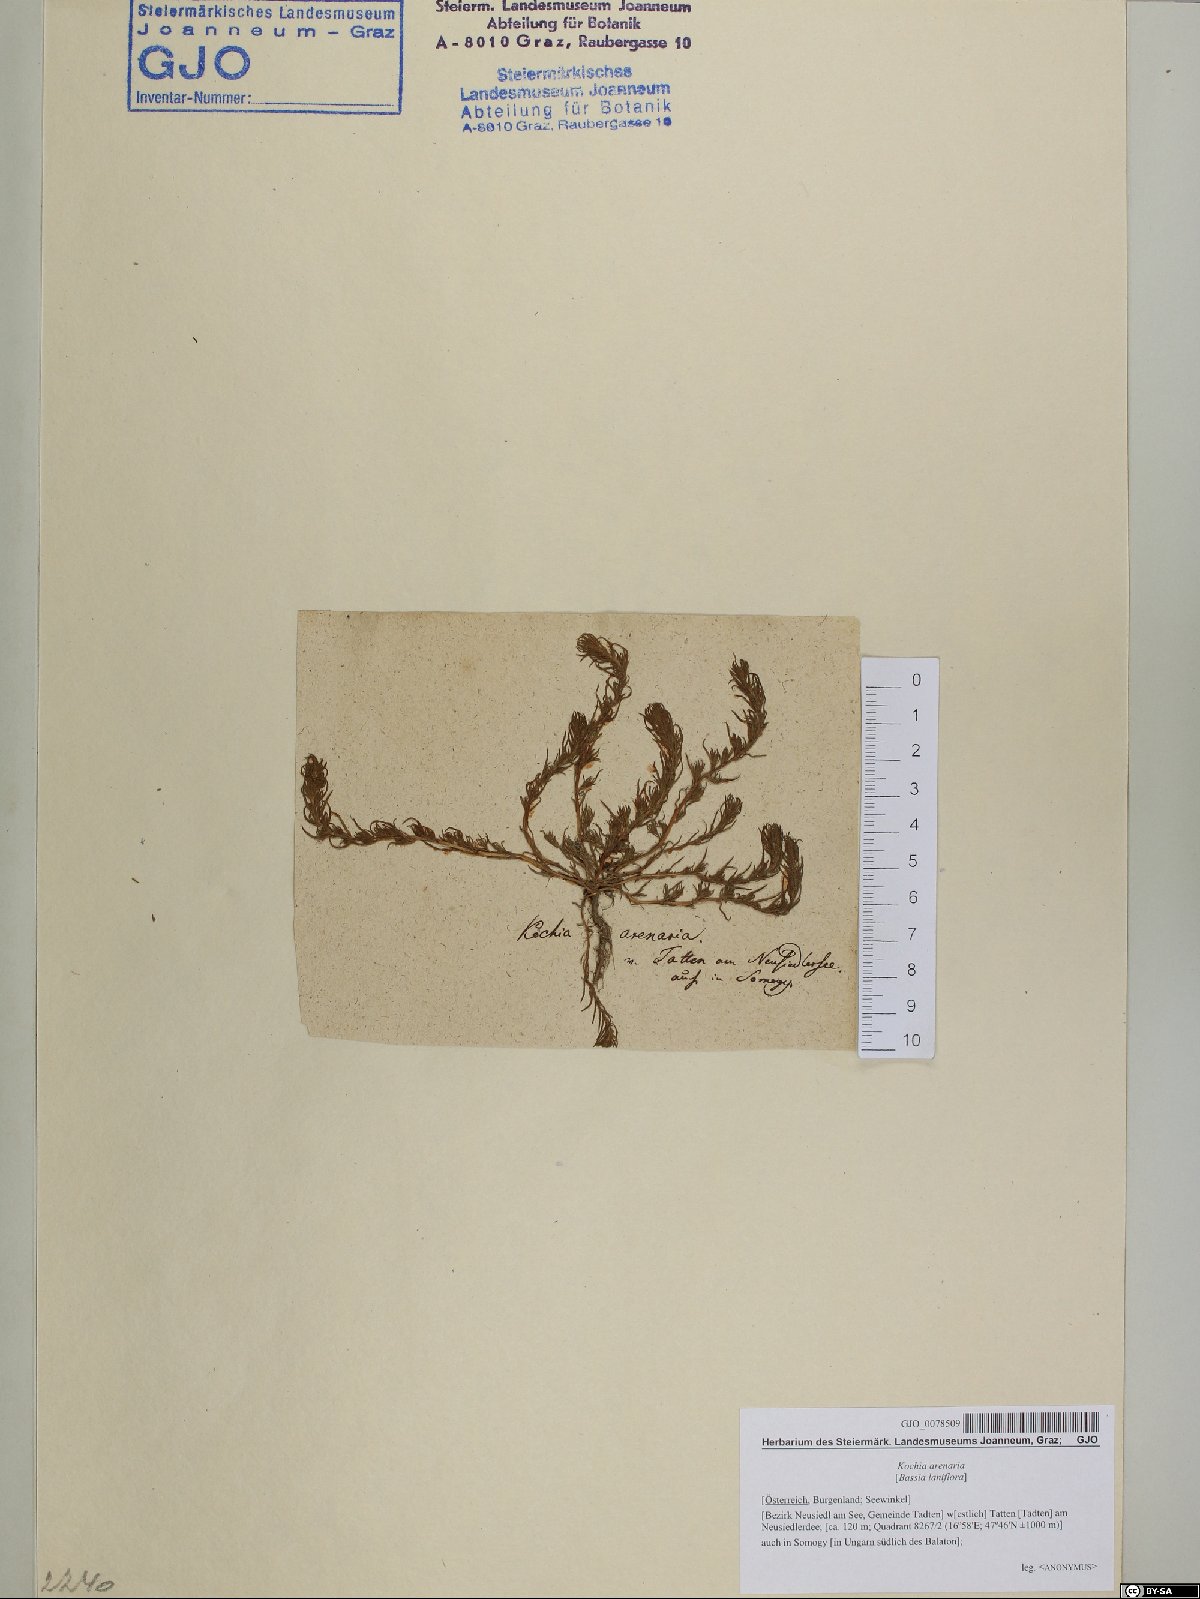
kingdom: Plantae
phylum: Tracheophyta
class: Magnoliopsida
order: Caryophyllales
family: Amaranthaceae
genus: Bassia
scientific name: Bassia laniflora
